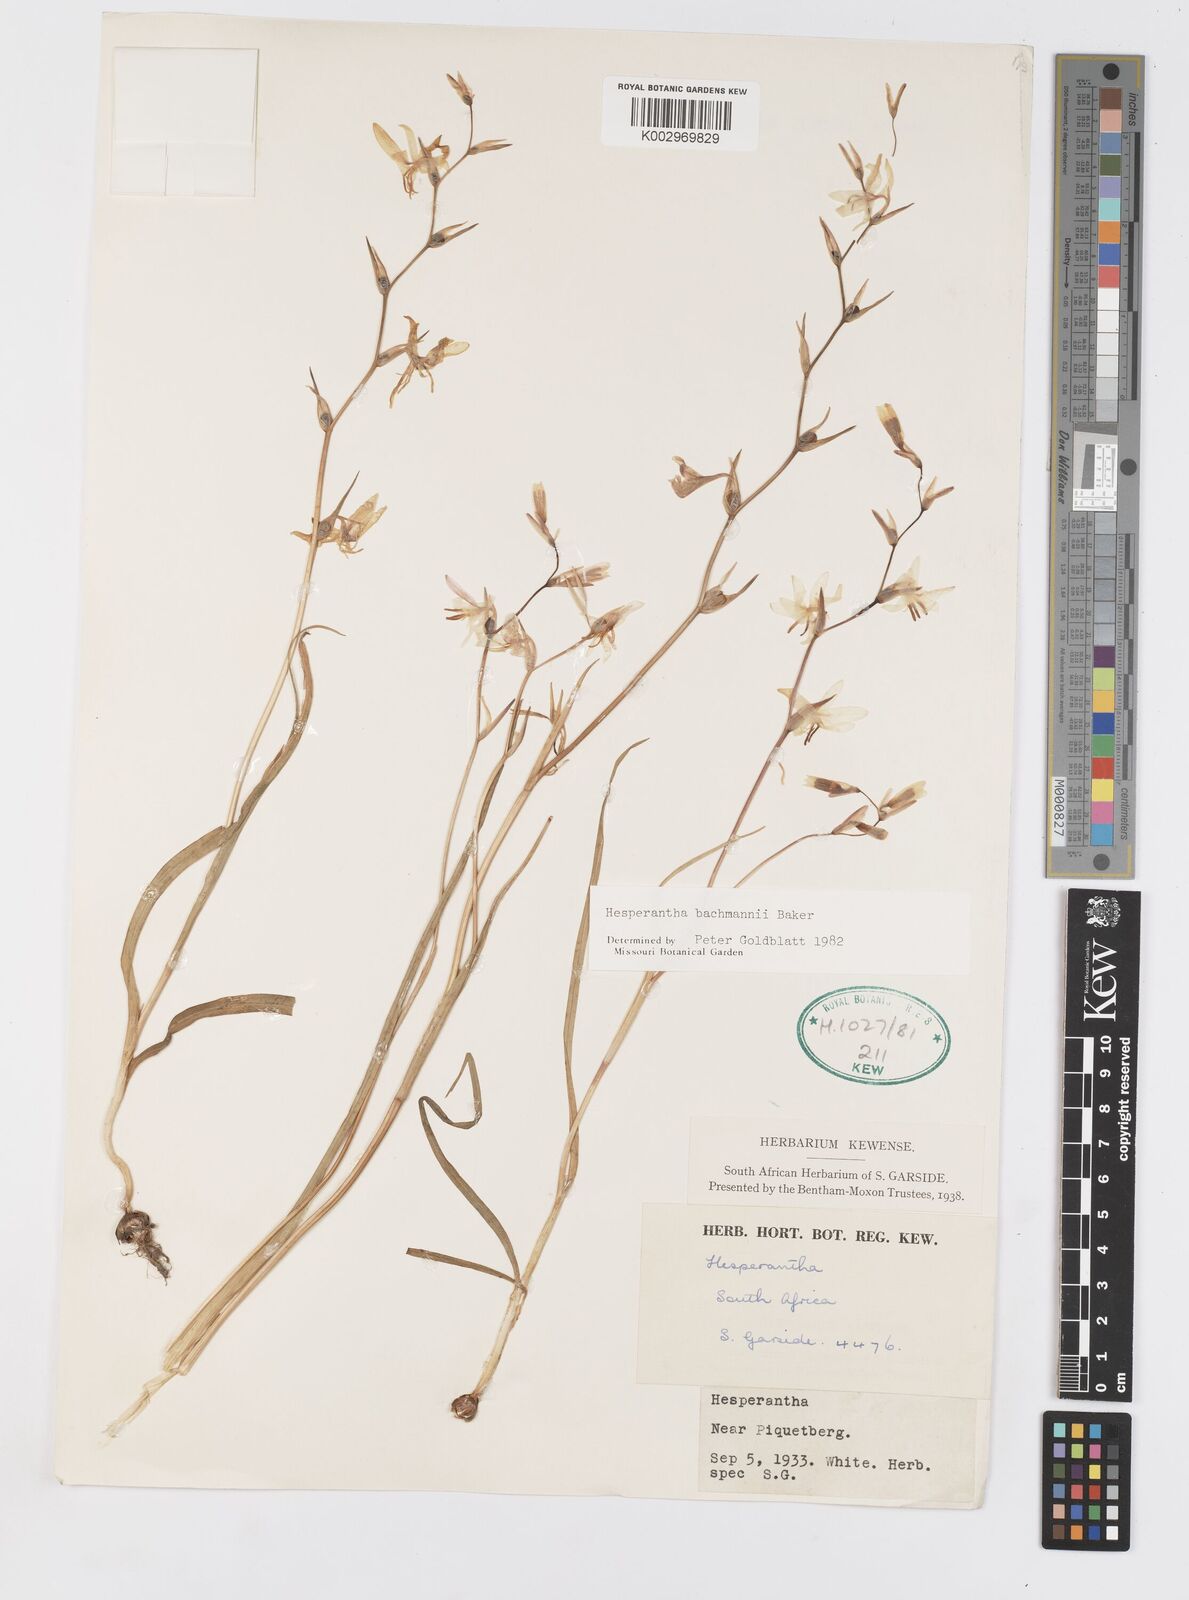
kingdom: Plantae
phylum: Tracheophyta
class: Liliopsida
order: Asparagales
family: Iridaceae
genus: Hesperantha
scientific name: Hesperantha bachmannii
